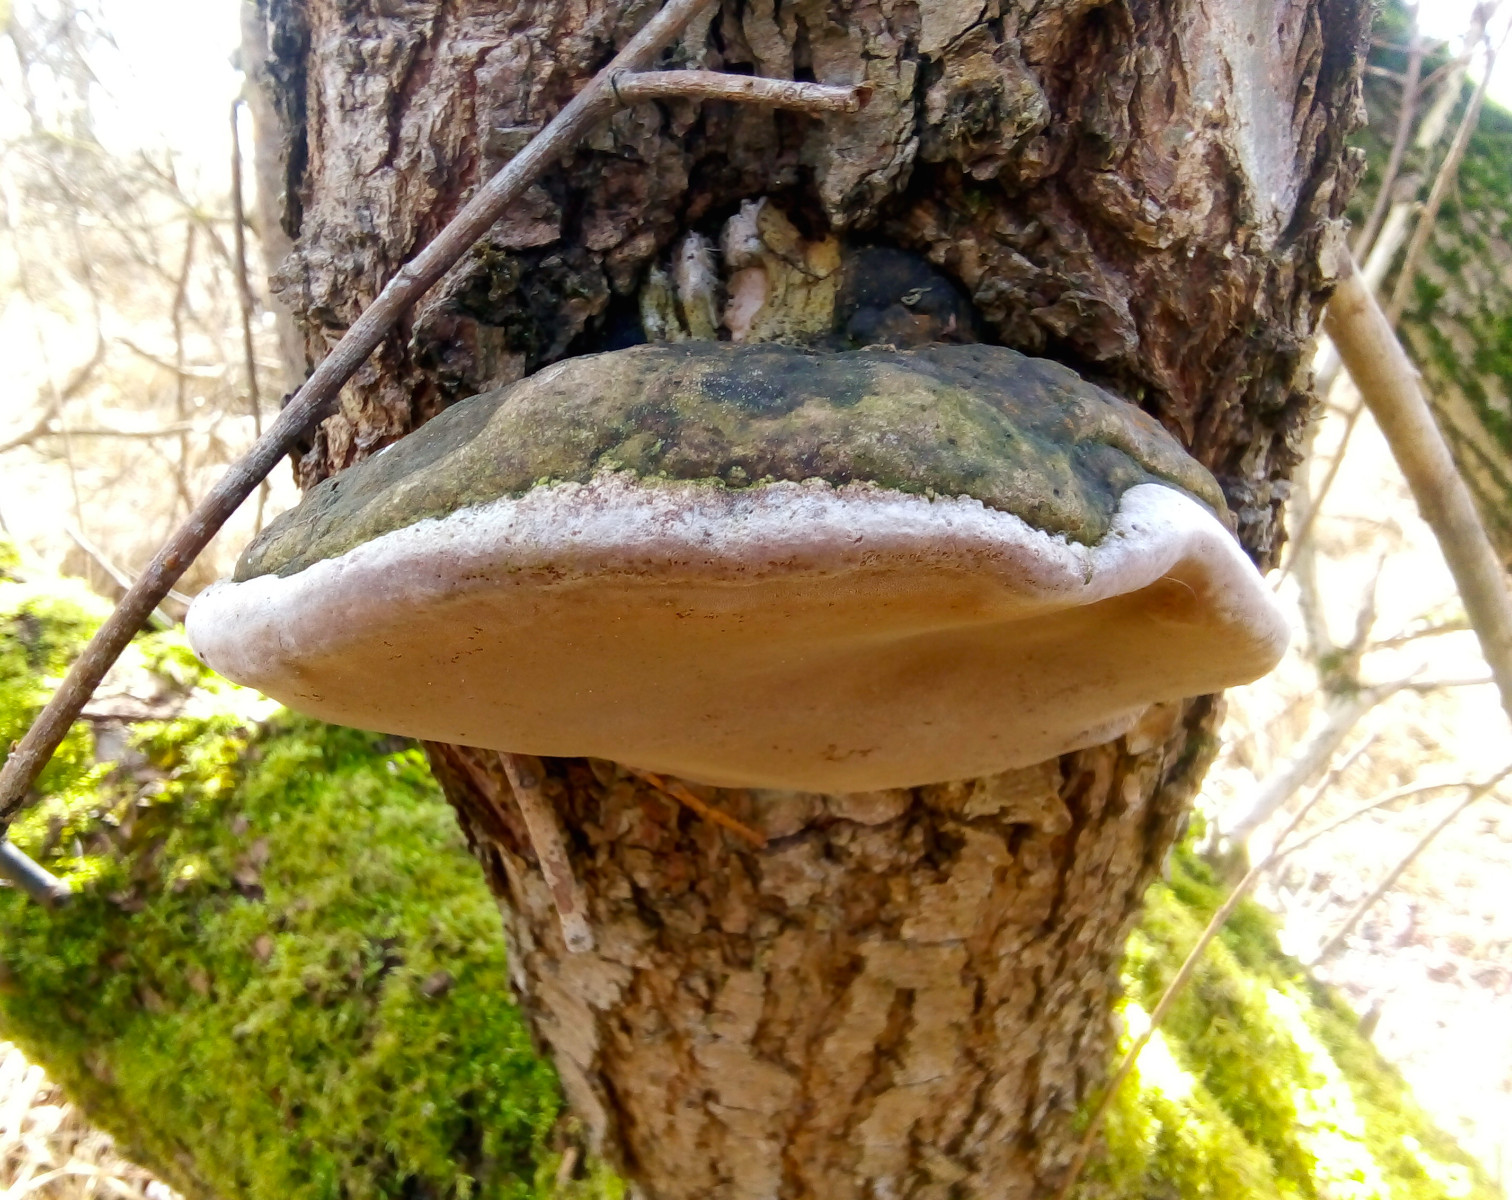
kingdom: Fungi
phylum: Basidiomycota
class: Agaricomycetes
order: Hymenochaetales
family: Hymenochaetaceae
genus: Phellinus
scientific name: Phellinus igniarius
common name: almindelig ildporesvamp
